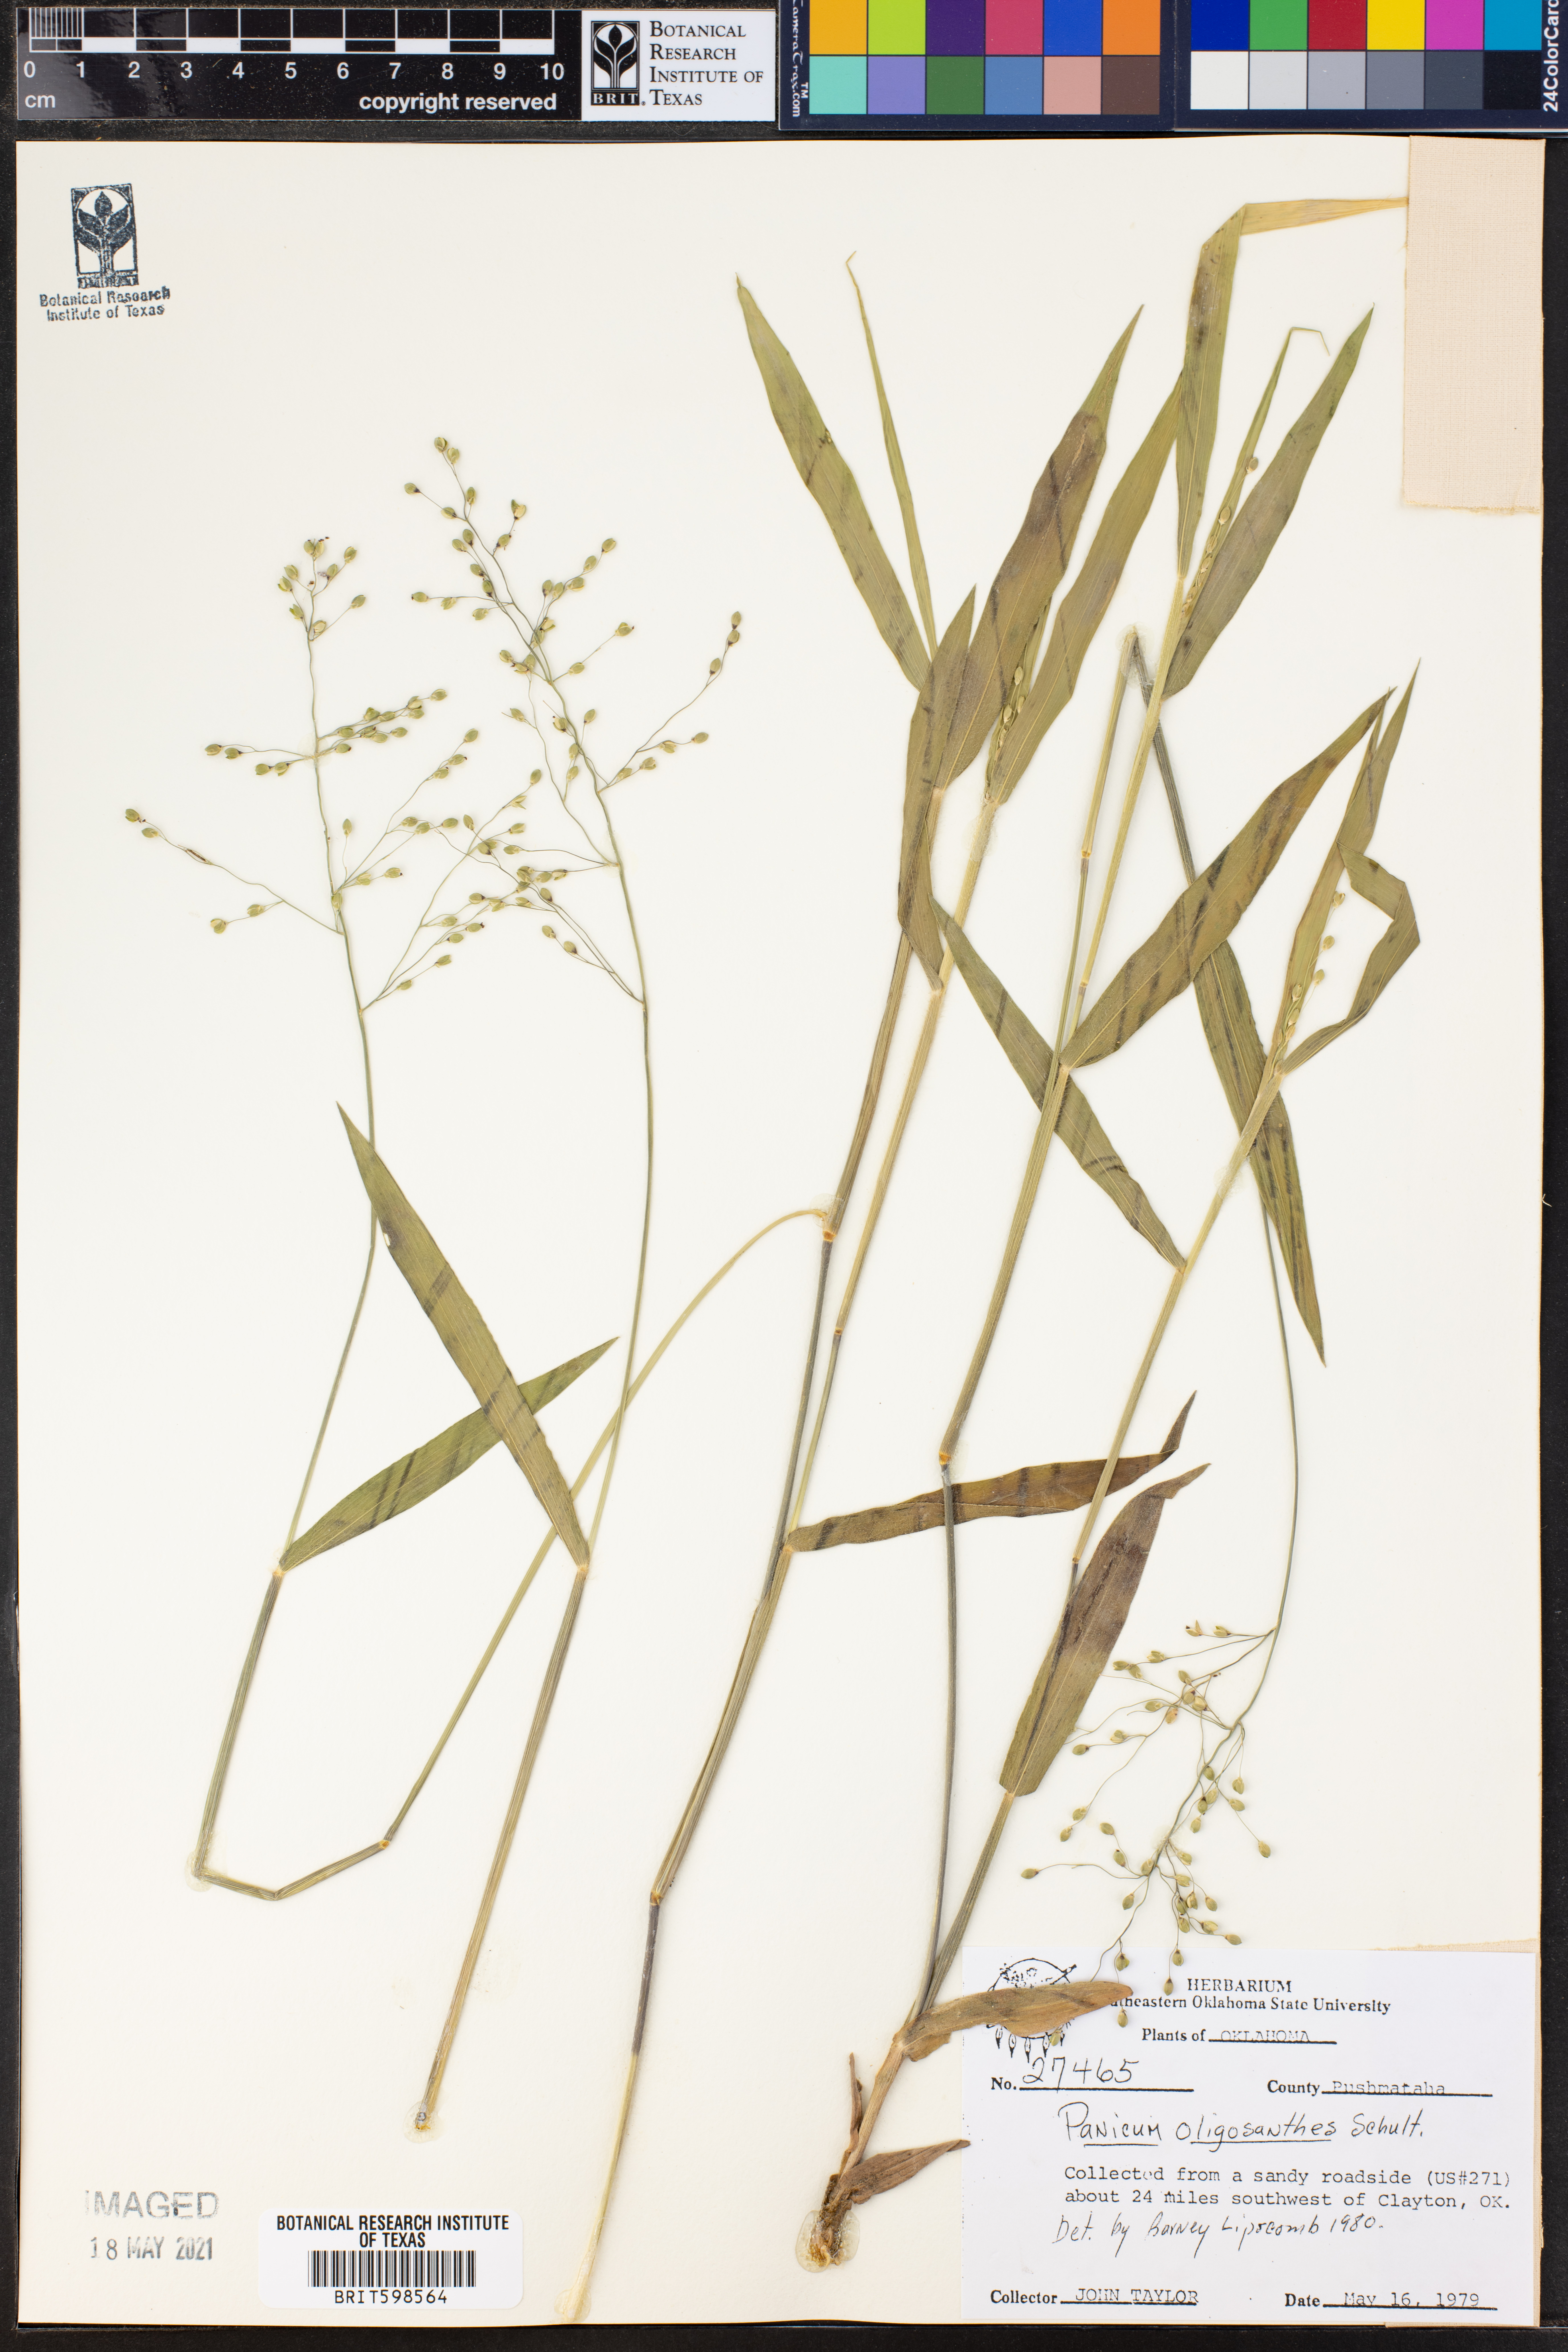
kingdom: Plantae
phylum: Tracheophyta
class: Liliopsida
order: Poales
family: Poaceae
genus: Dichanthelium
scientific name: Dichanthelium oligosanthes
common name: Few-anther obscuregrass
